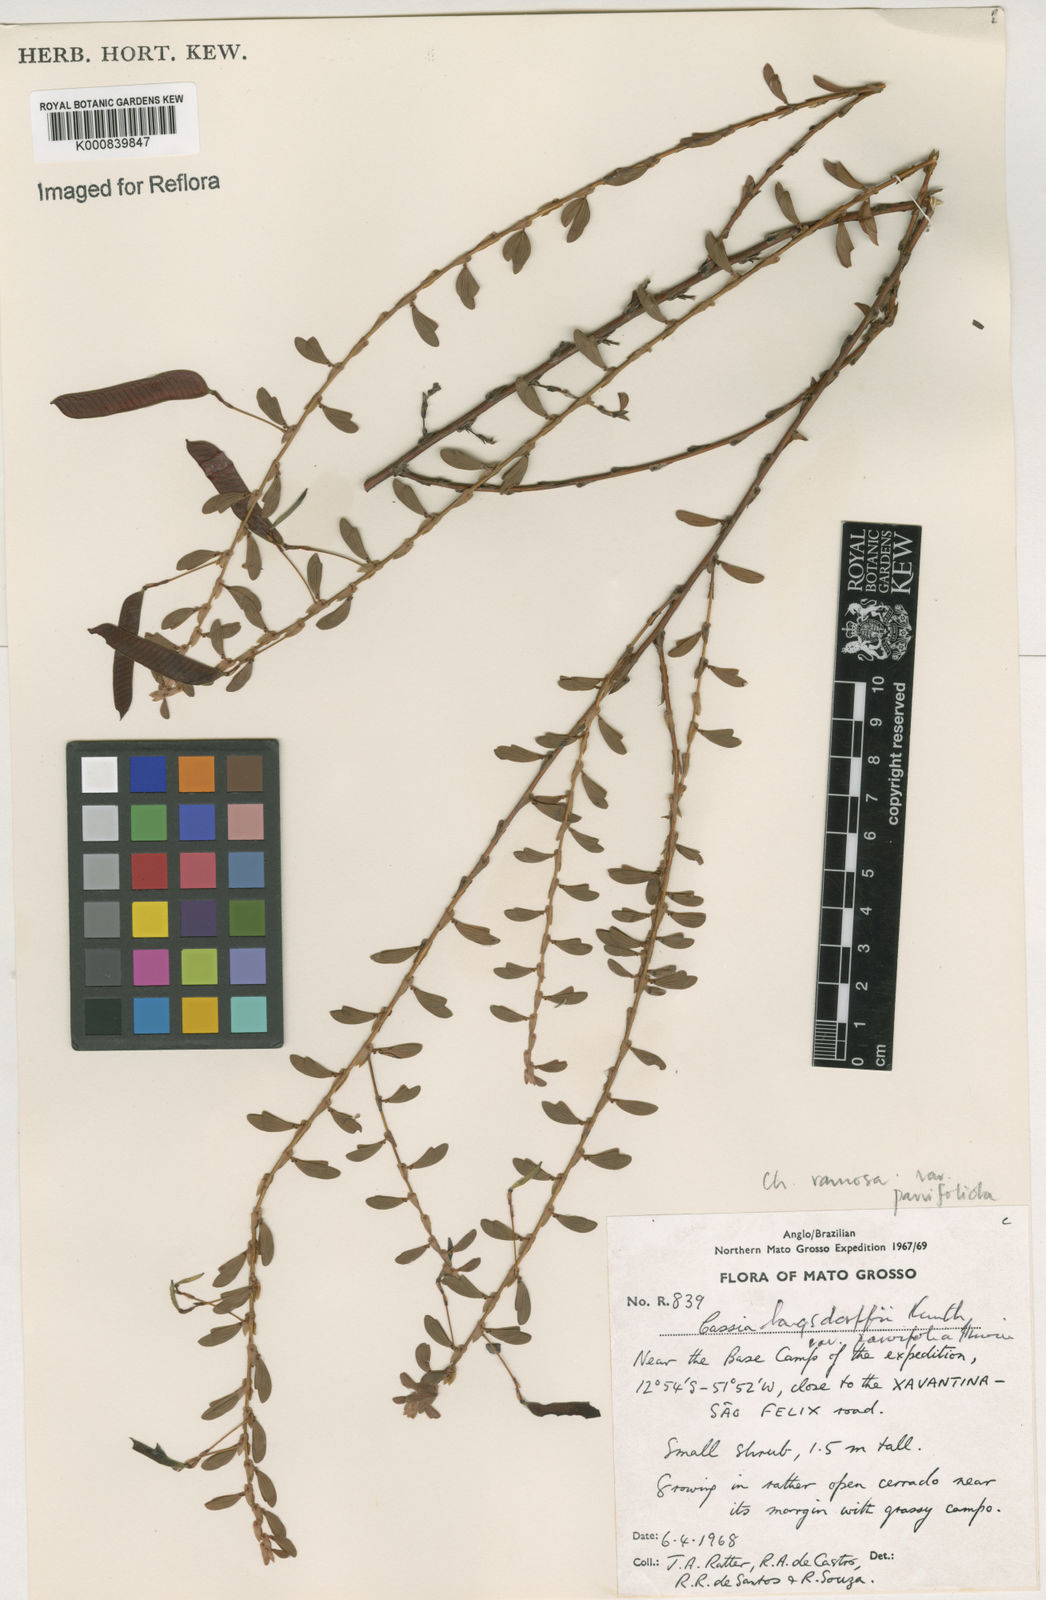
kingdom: Plantae
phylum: Tracheophyta
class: Magnoliopsida
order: Fabales
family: Fabaceae
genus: Chamaecrista
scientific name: Chamaecrista ramosa
